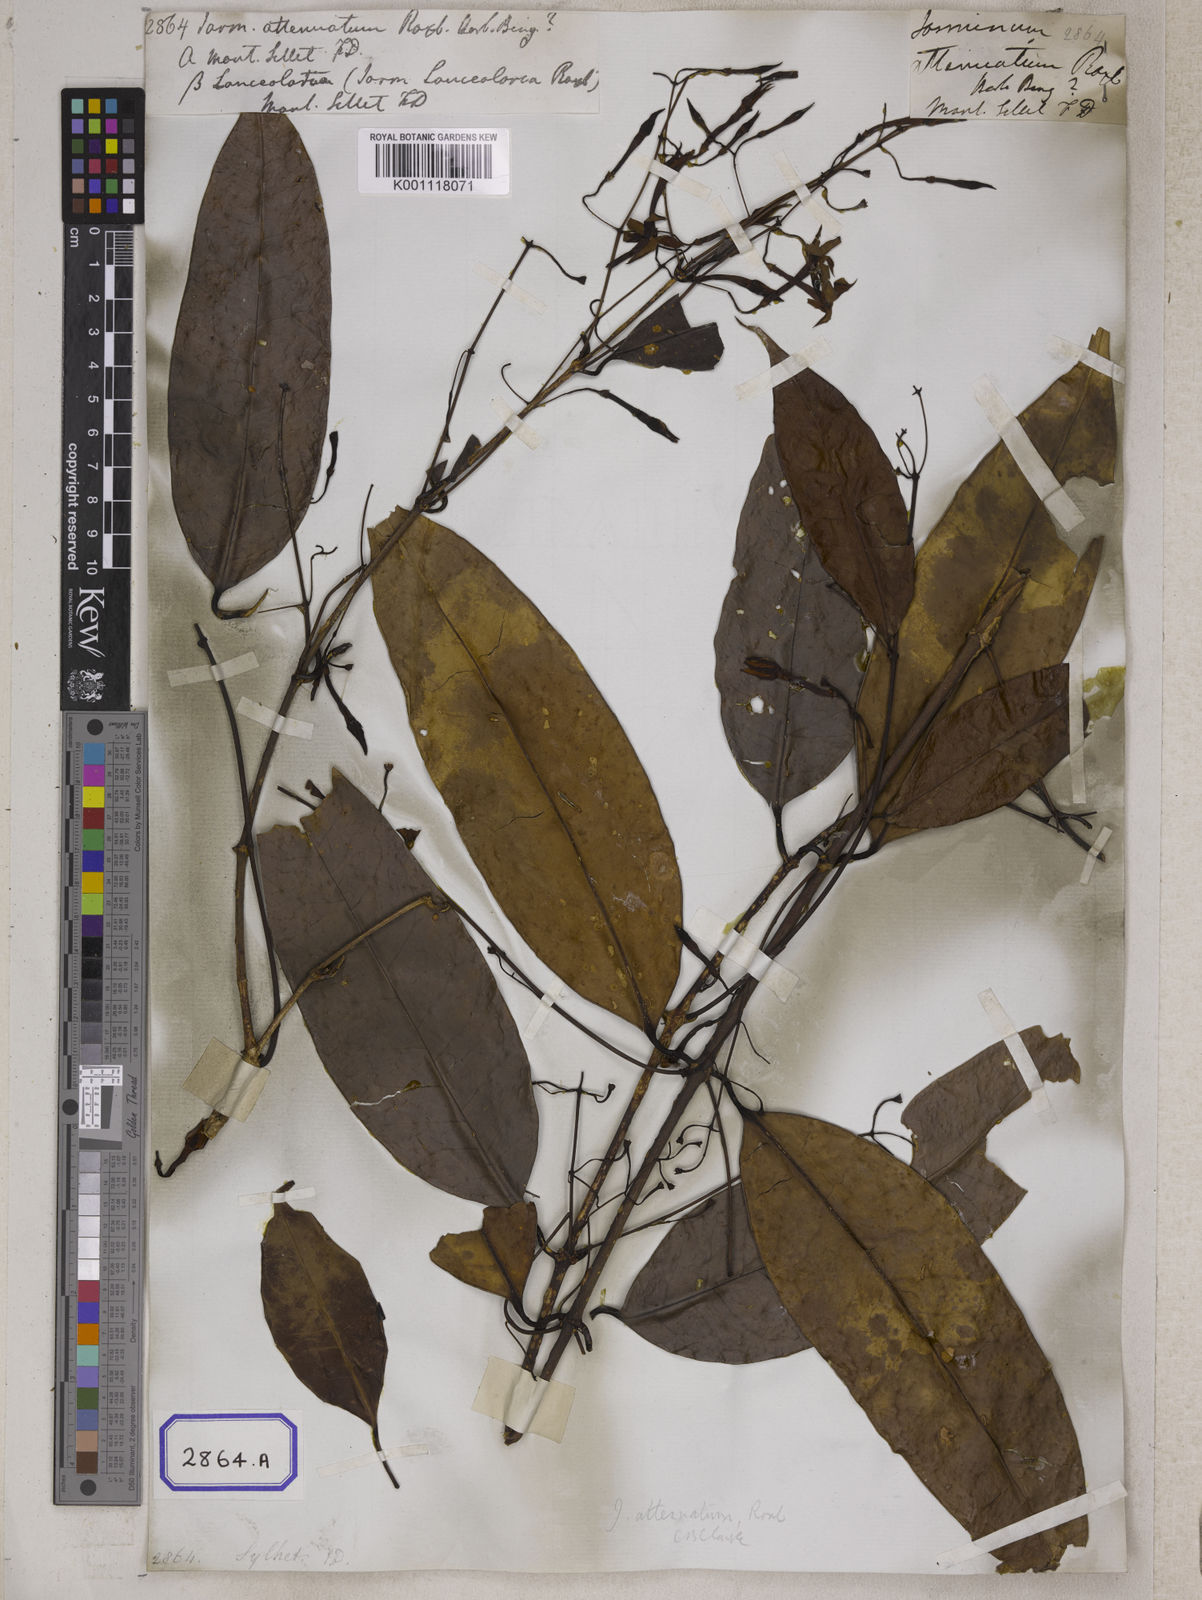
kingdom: Plantae
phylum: Tracheophyta
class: Magnoliopsida
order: Lamiales
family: Oleaceae
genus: Jasminum
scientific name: Jasminum
